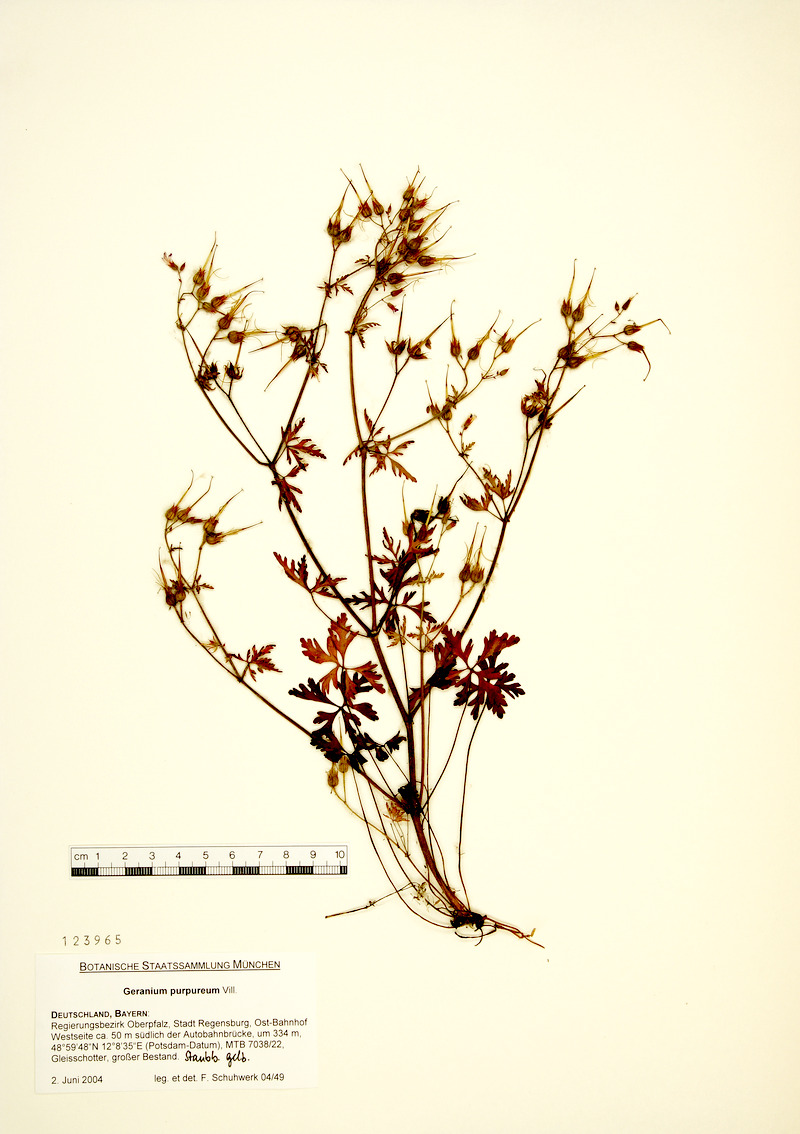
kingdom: Plantae
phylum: Tracheophyta
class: Magnoliopsida
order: Geraniales
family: Geraniaceae
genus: Geranium
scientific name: Geranium purpureum
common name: Little-robin
